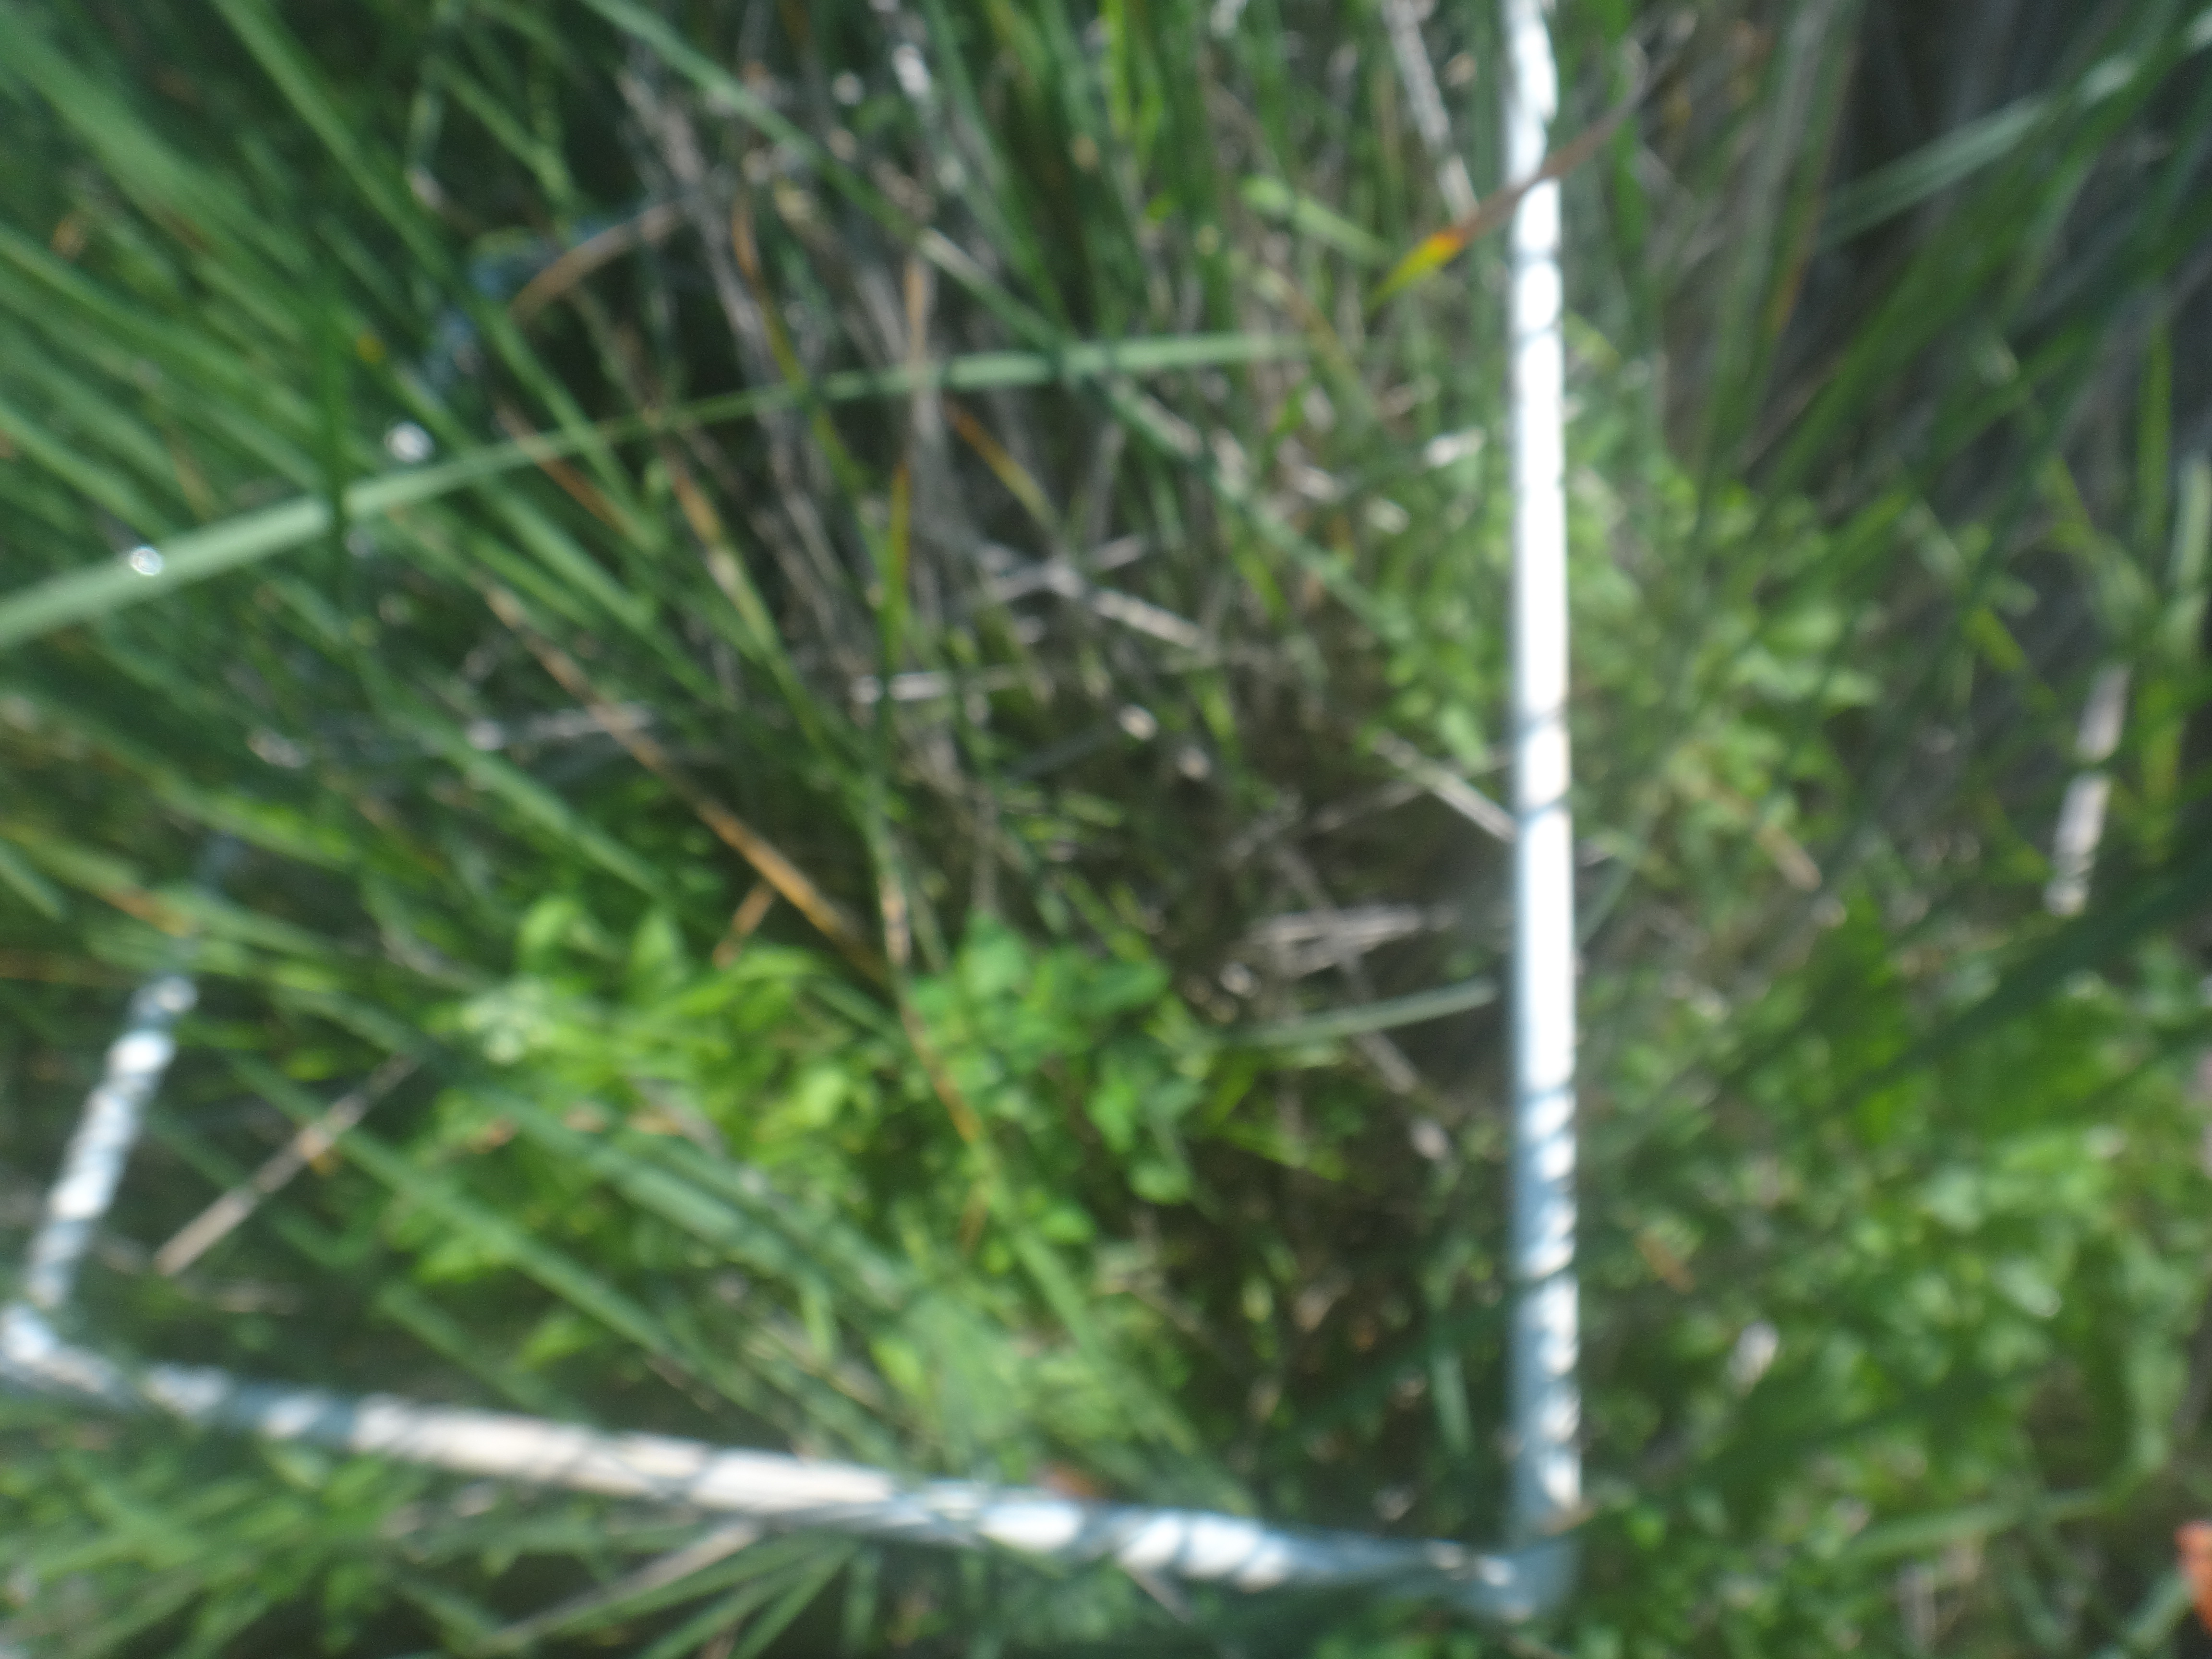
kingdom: Plantae
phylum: Tracheophyta
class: Liliopsida
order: Poales
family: Cyperaceae
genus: Schoenoplectus
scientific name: Schoenoplectus acutus
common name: Hardstem bulrush
